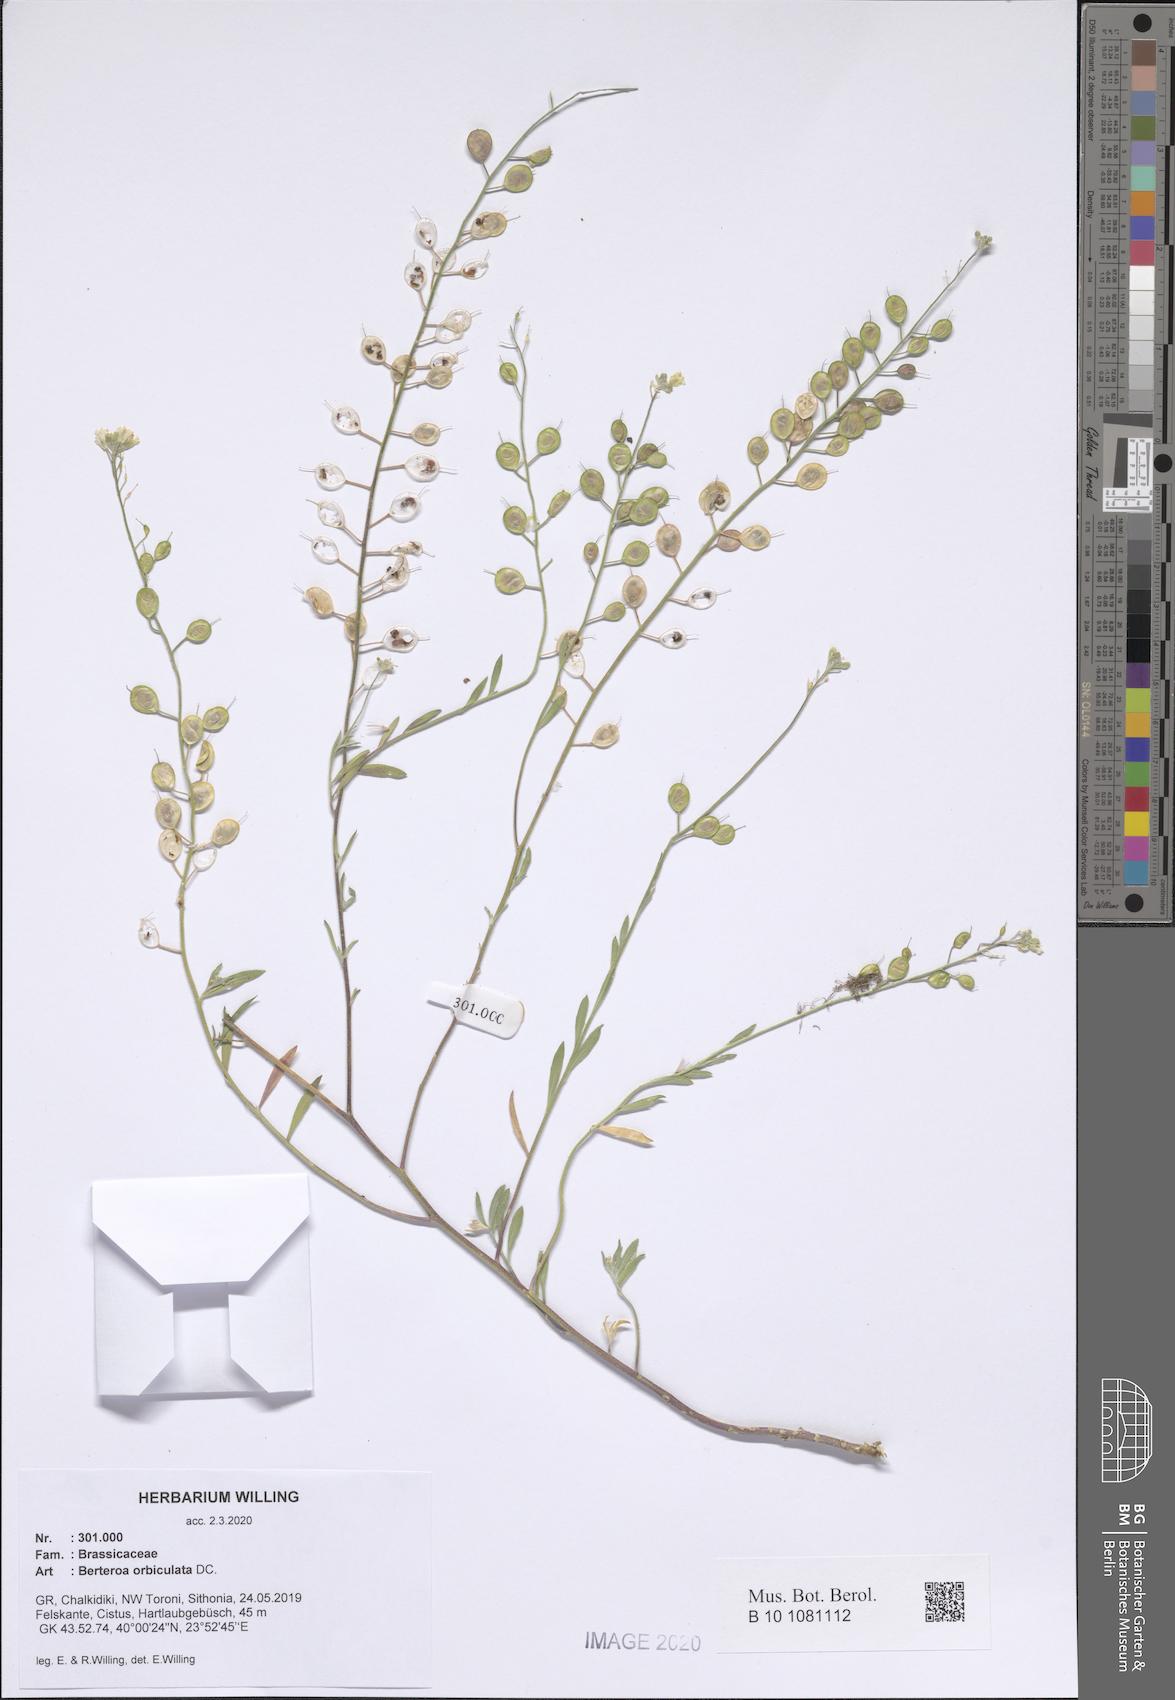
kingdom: Plantae
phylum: Tracheophyta
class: Magnoliopsida
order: Brassicales
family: Brassicaceae
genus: Berteroa
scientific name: Berteroa orbiculata
